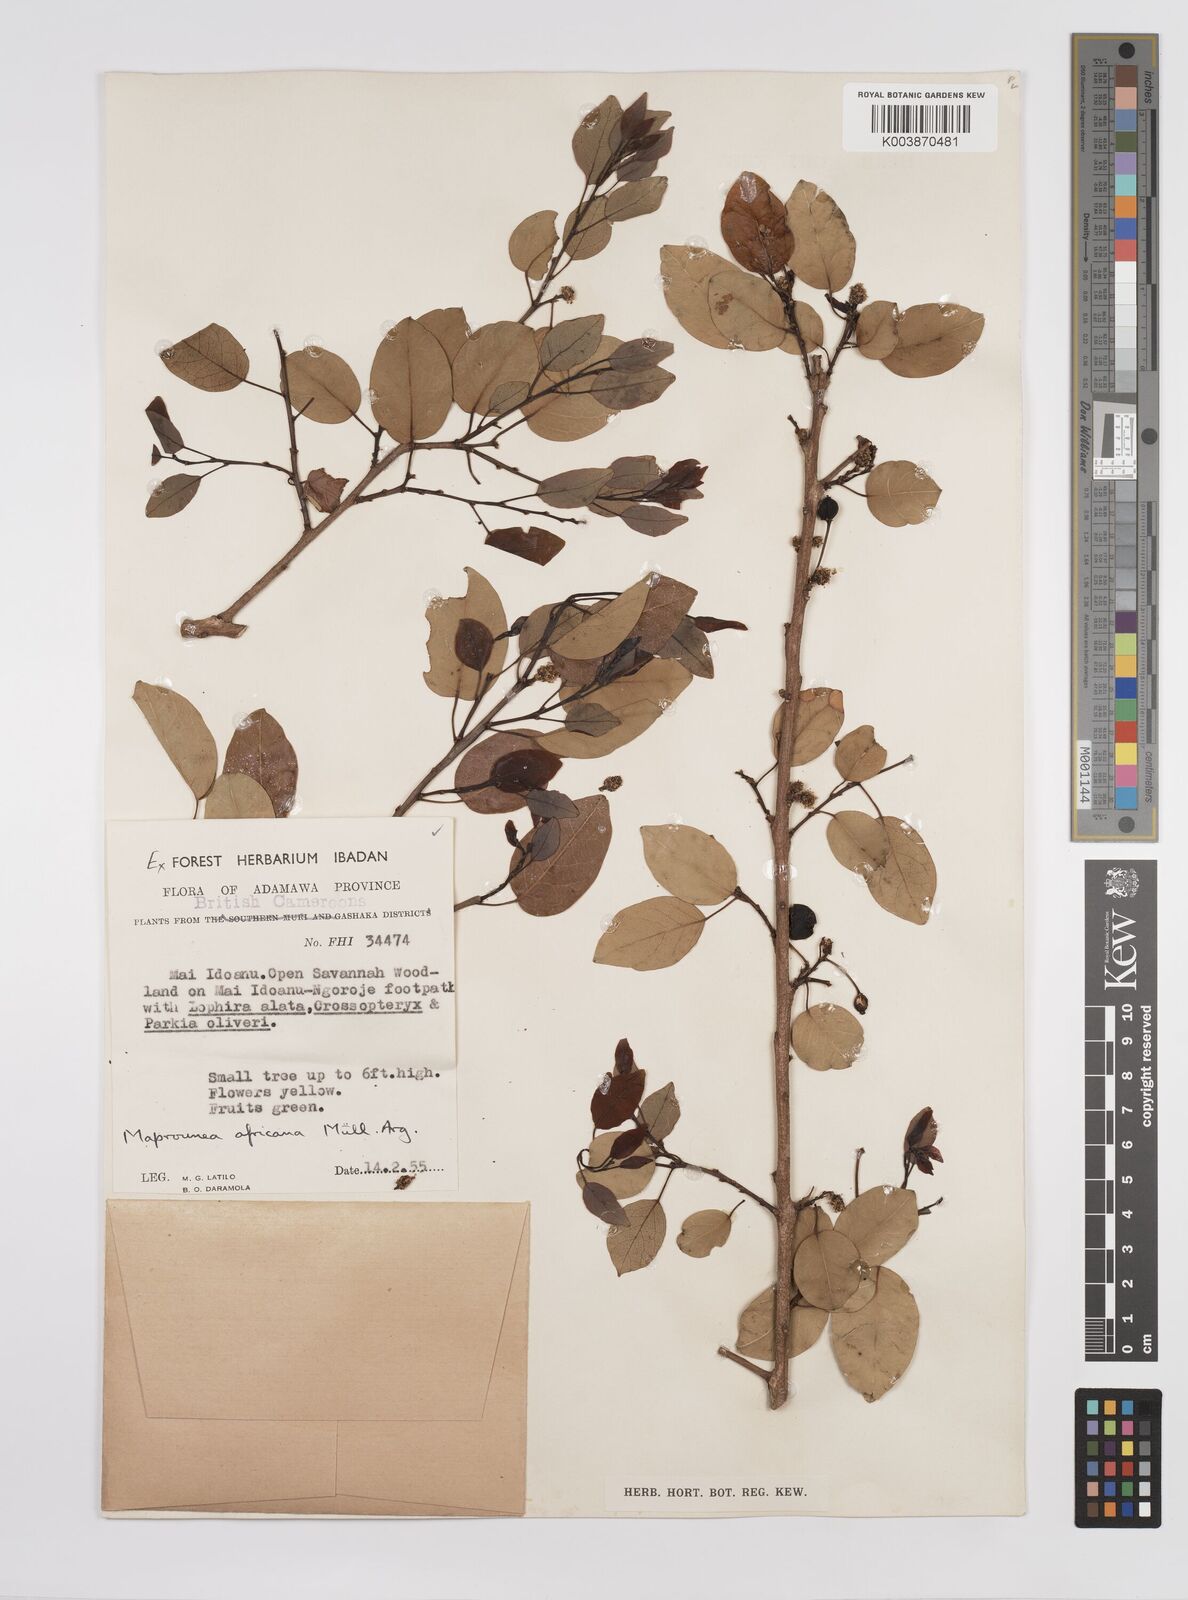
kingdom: Plantae
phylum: Tracheophyta
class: Magnoliopsida
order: Malpighiales
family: Euphorbiaceae
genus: Maprounea
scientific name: Maprounea africana
